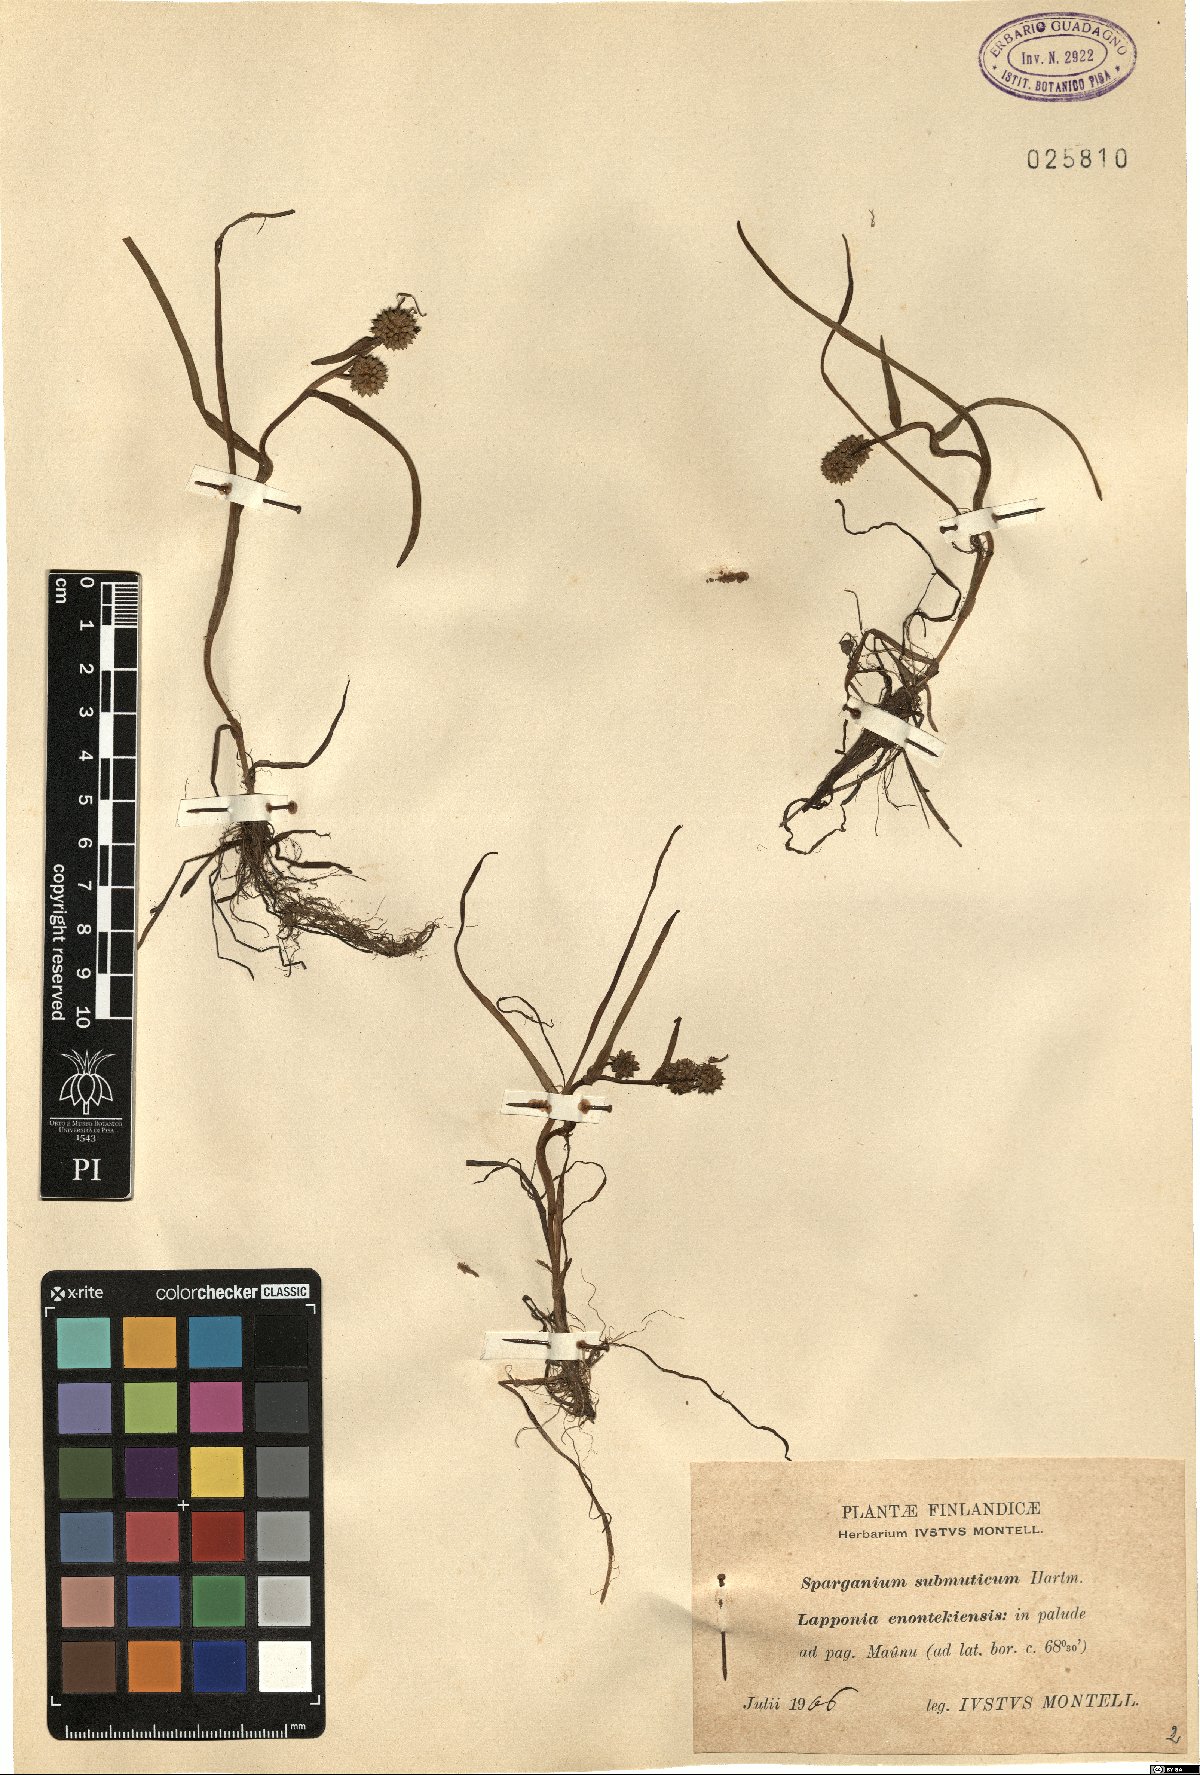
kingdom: Plantae
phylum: Tracheophyta
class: Liliopsida
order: Poales
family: Typhaceae
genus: Sparganium
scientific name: Sparganium hyperboreum
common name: Arctic burreed
